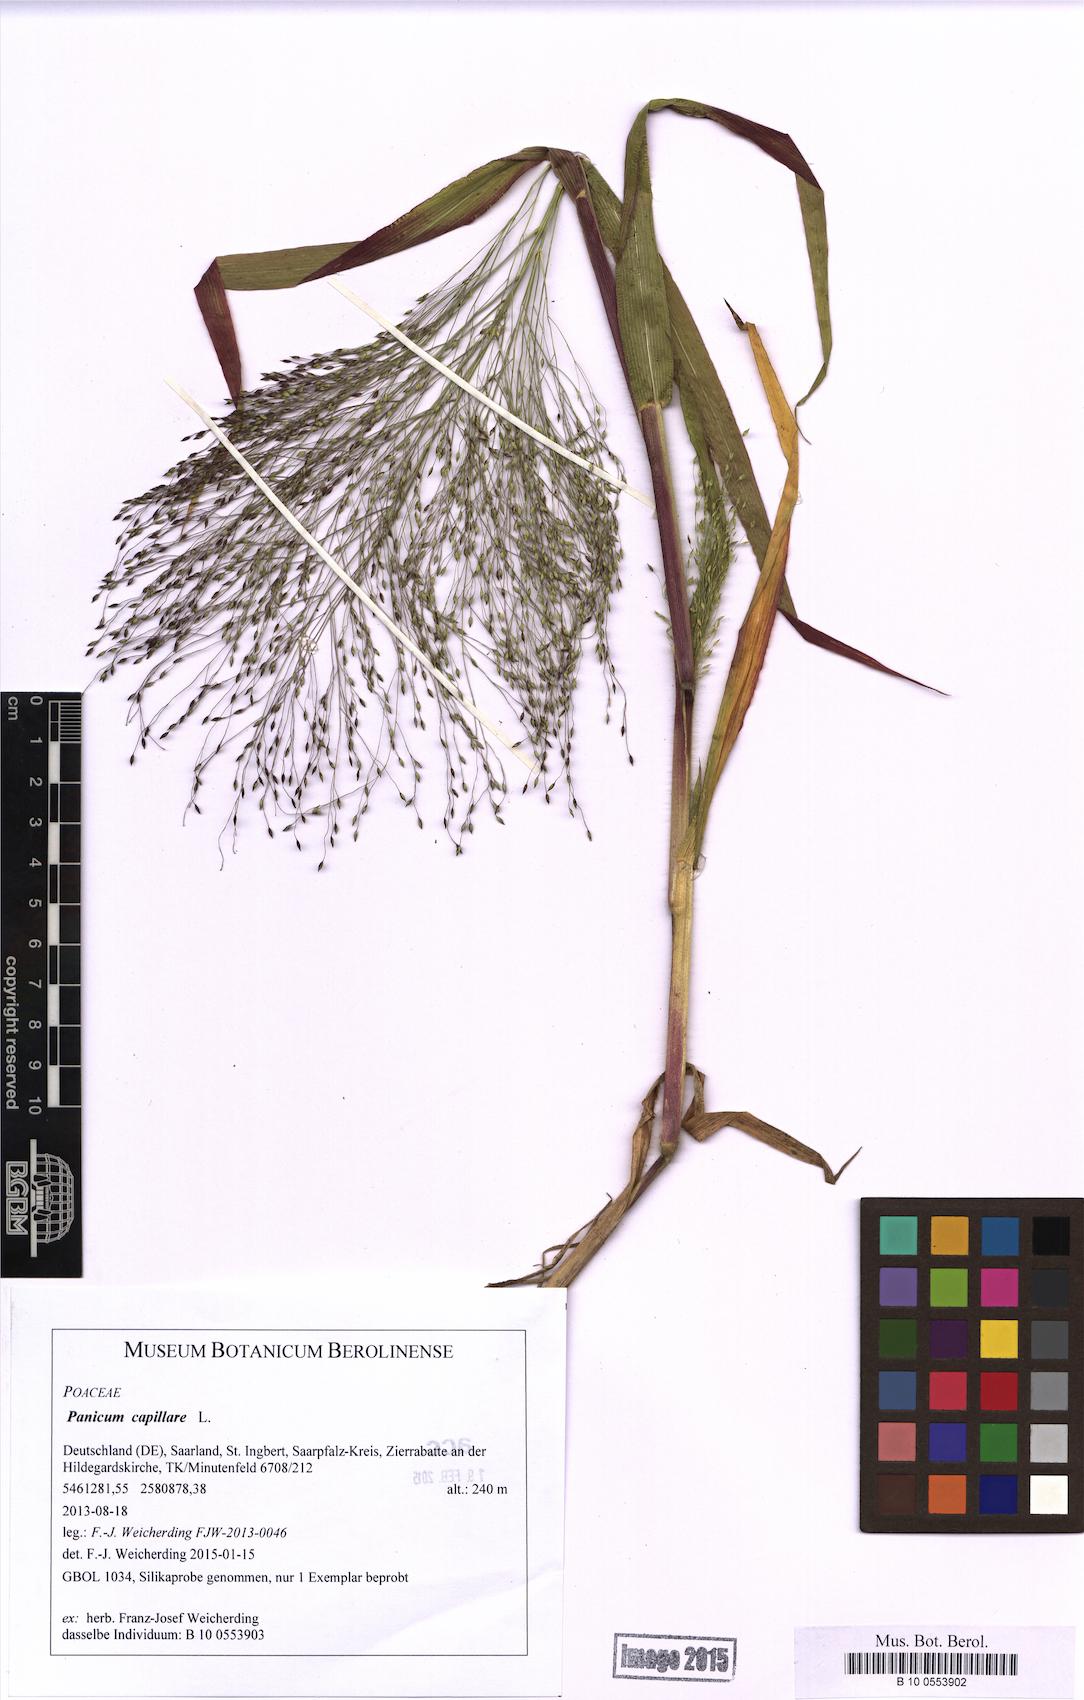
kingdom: Plantae
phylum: Tracheophyta
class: Liliopsida
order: Poales
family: Poaceae
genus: Panicum
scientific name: Panicum capillare
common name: Witch-grass
